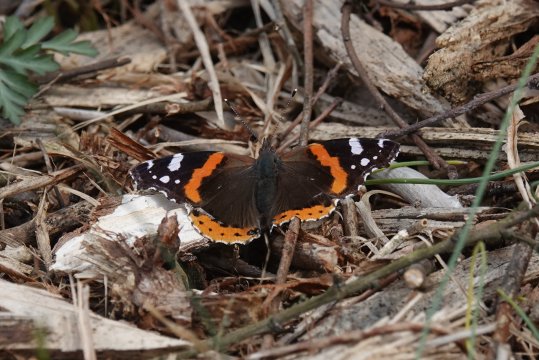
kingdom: Animalia
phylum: Arthropoda
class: Insecta
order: Lepidoptera
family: Nymphalidae
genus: Vanessa
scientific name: Vanessa atalanta
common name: Red Admiral
